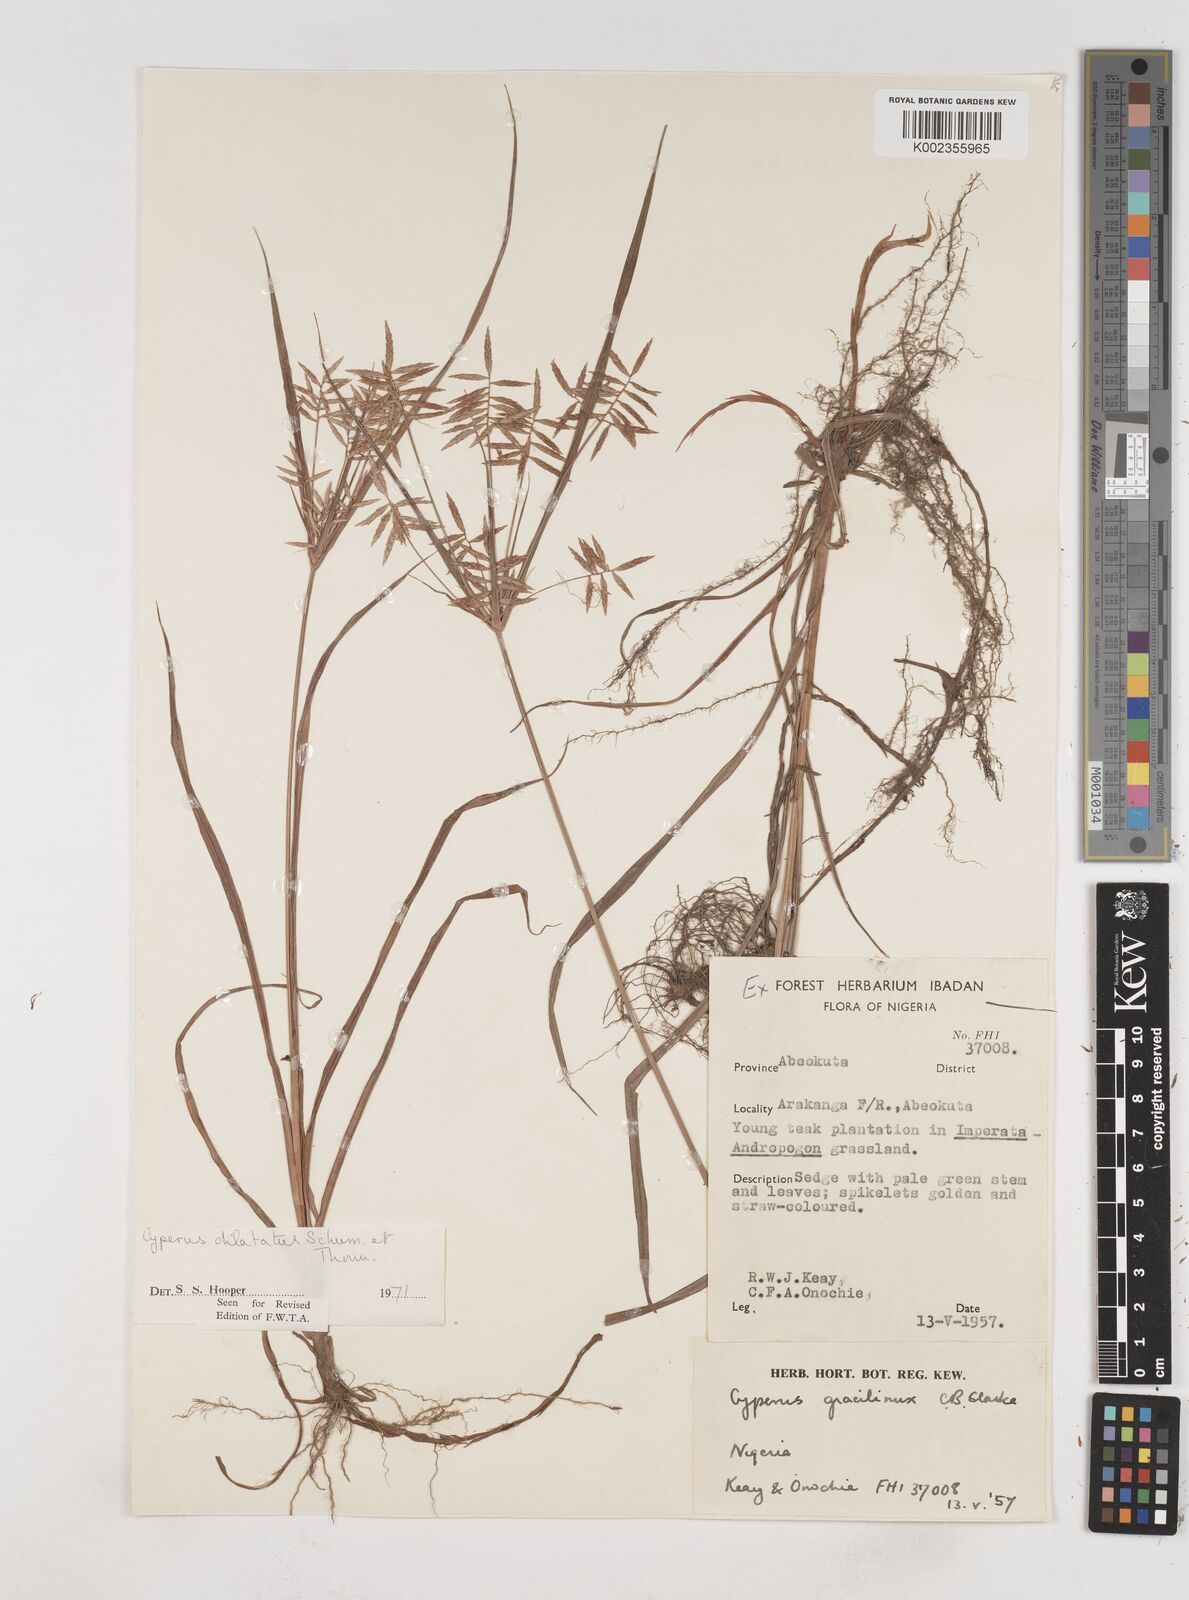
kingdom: Plantae
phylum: Tracheophyta
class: Liliopsida
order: Poales
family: Cyperaceae
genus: Cyperus
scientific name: Cyperus dilatatus
